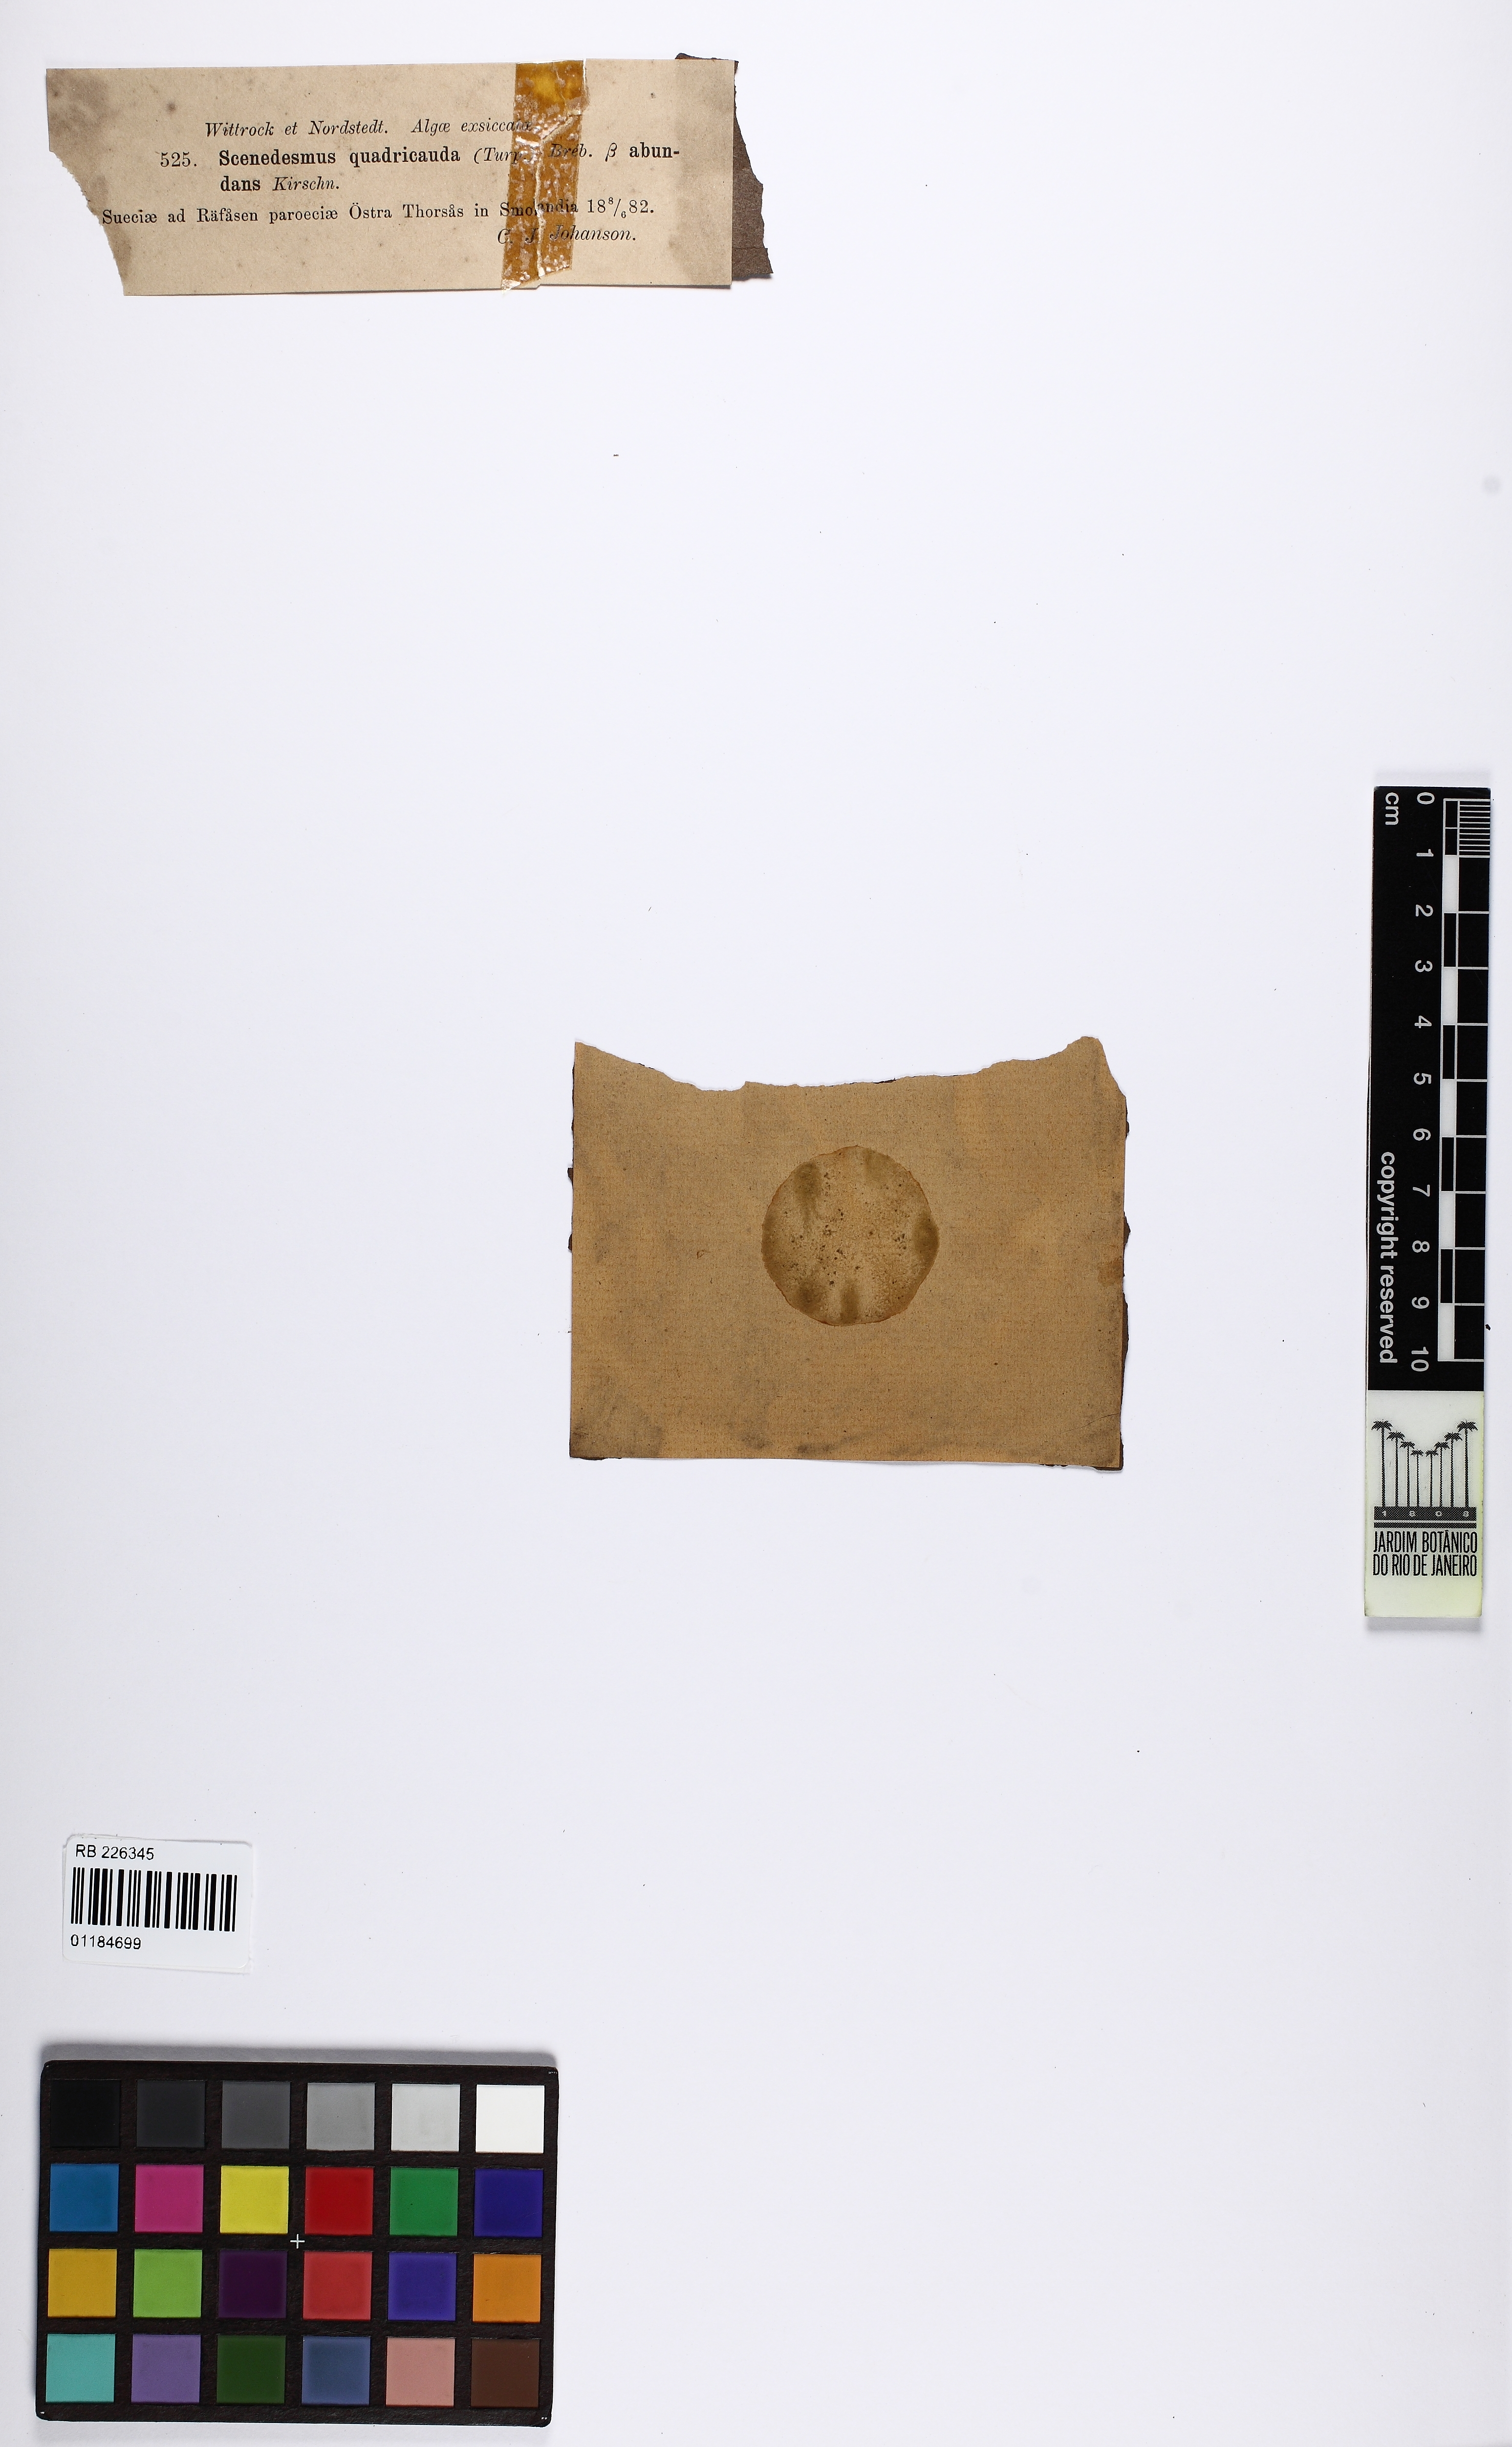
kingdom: Plantae
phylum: Chlorophyta
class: Chlorophyceae
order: Sphaeropleales
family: Scenedesmaceae
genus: Desmodesmus
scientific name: Desmodesmus abundans
